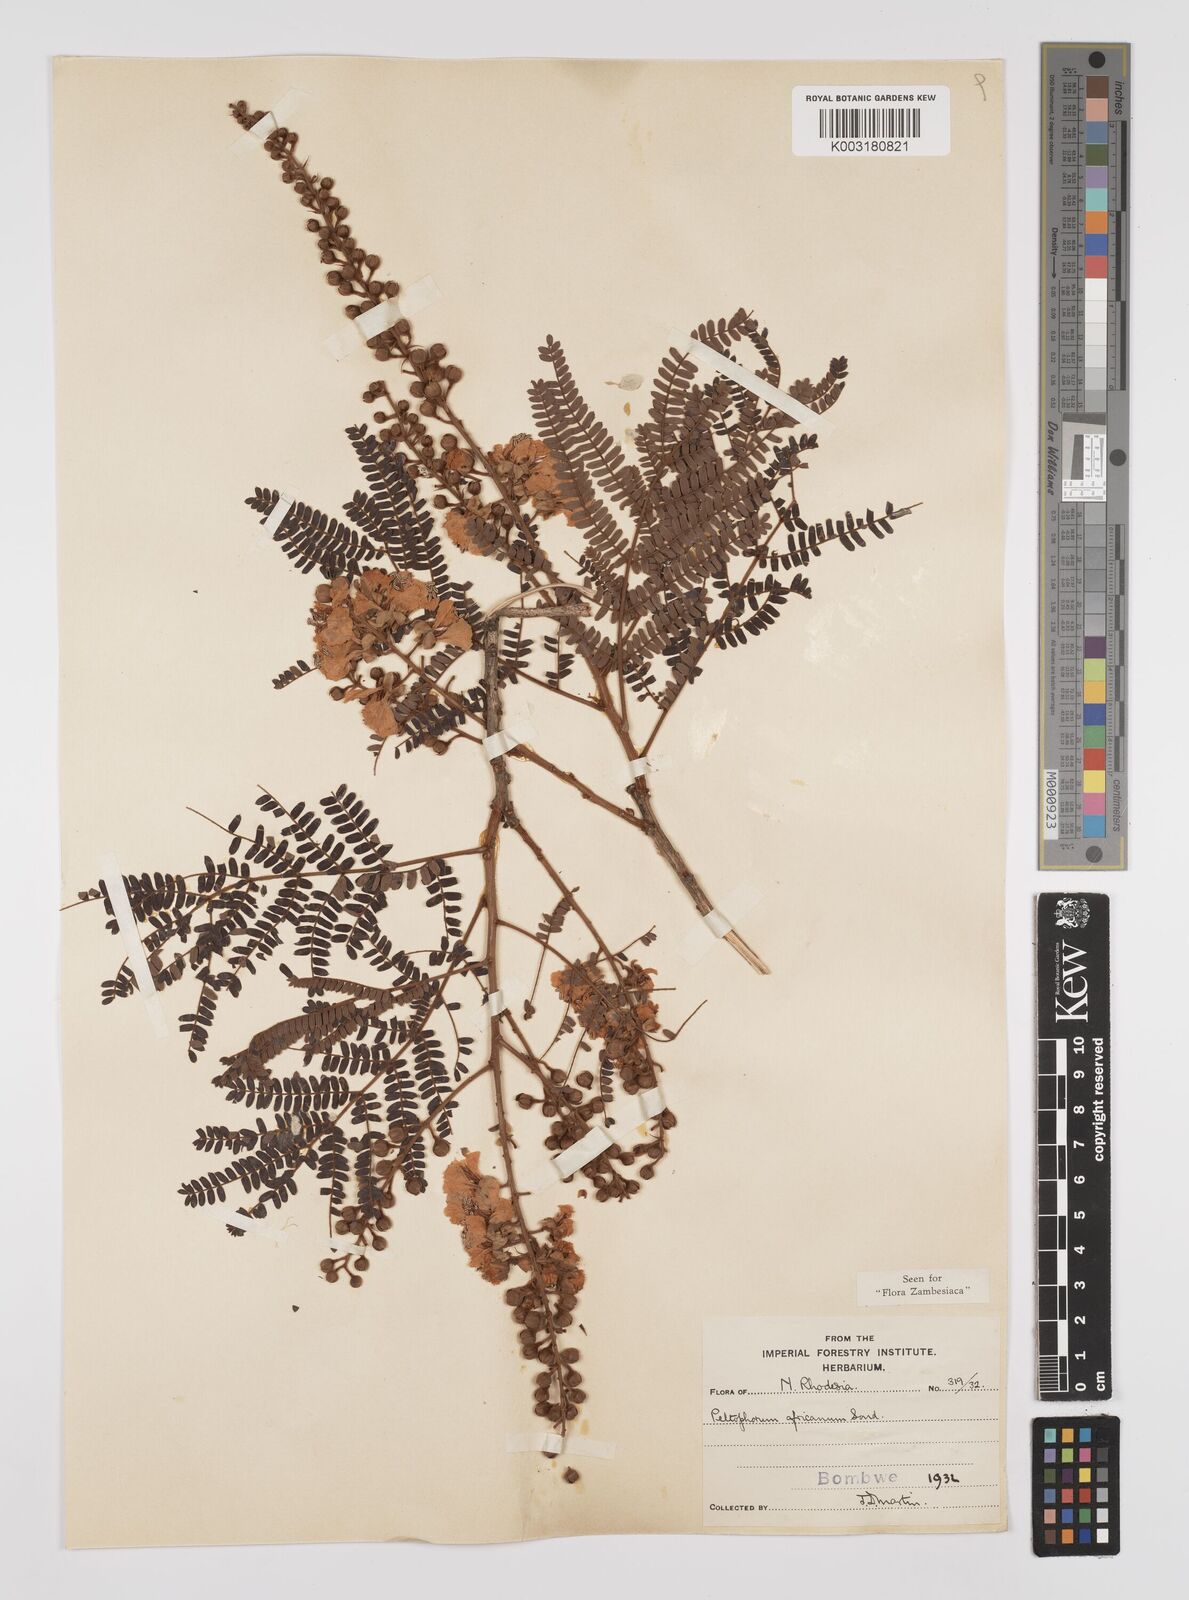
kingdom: Plantae
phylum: Tracheophyta
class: Magnoliopsida
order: Fabales
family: Fabaceae
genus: Peltophorum
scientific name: Peltophorum africanum
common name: African black wattle
